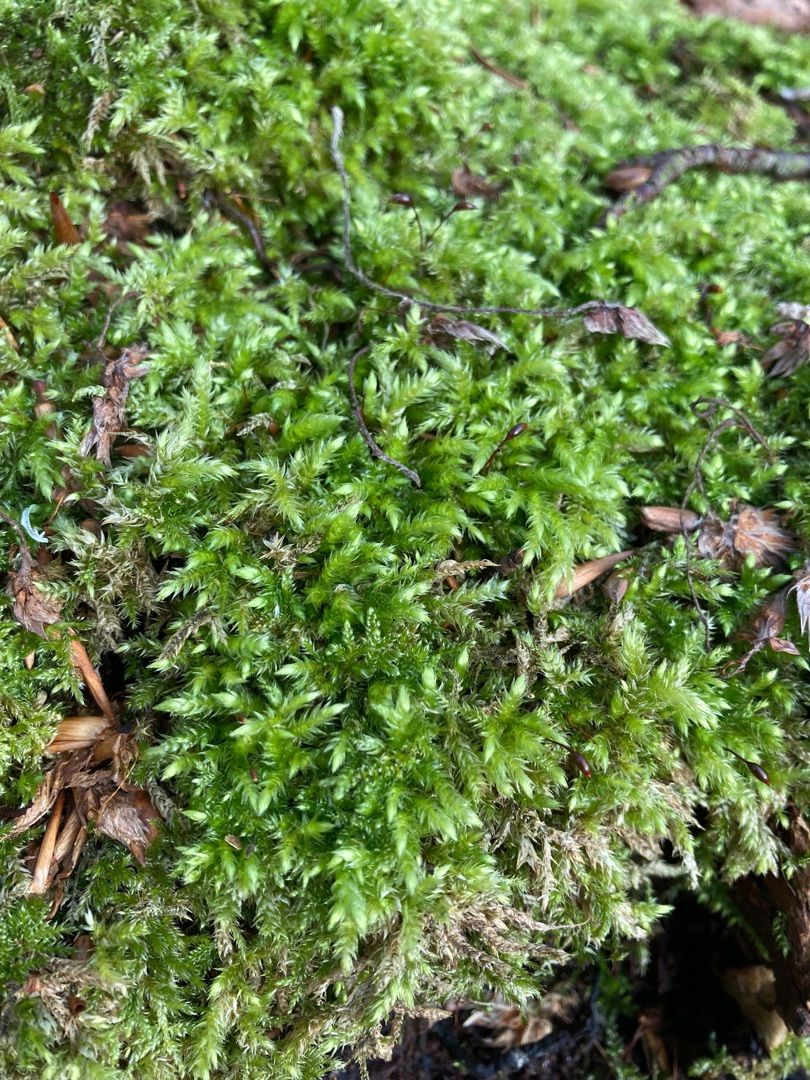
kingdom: Plantae
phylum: Bryophyta
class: Bryopsida
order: Hypnales
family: Brachytheciaceae
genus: Brachythecium
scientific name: Brachythecium rutabulum
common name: Almindelig kortkapsel
